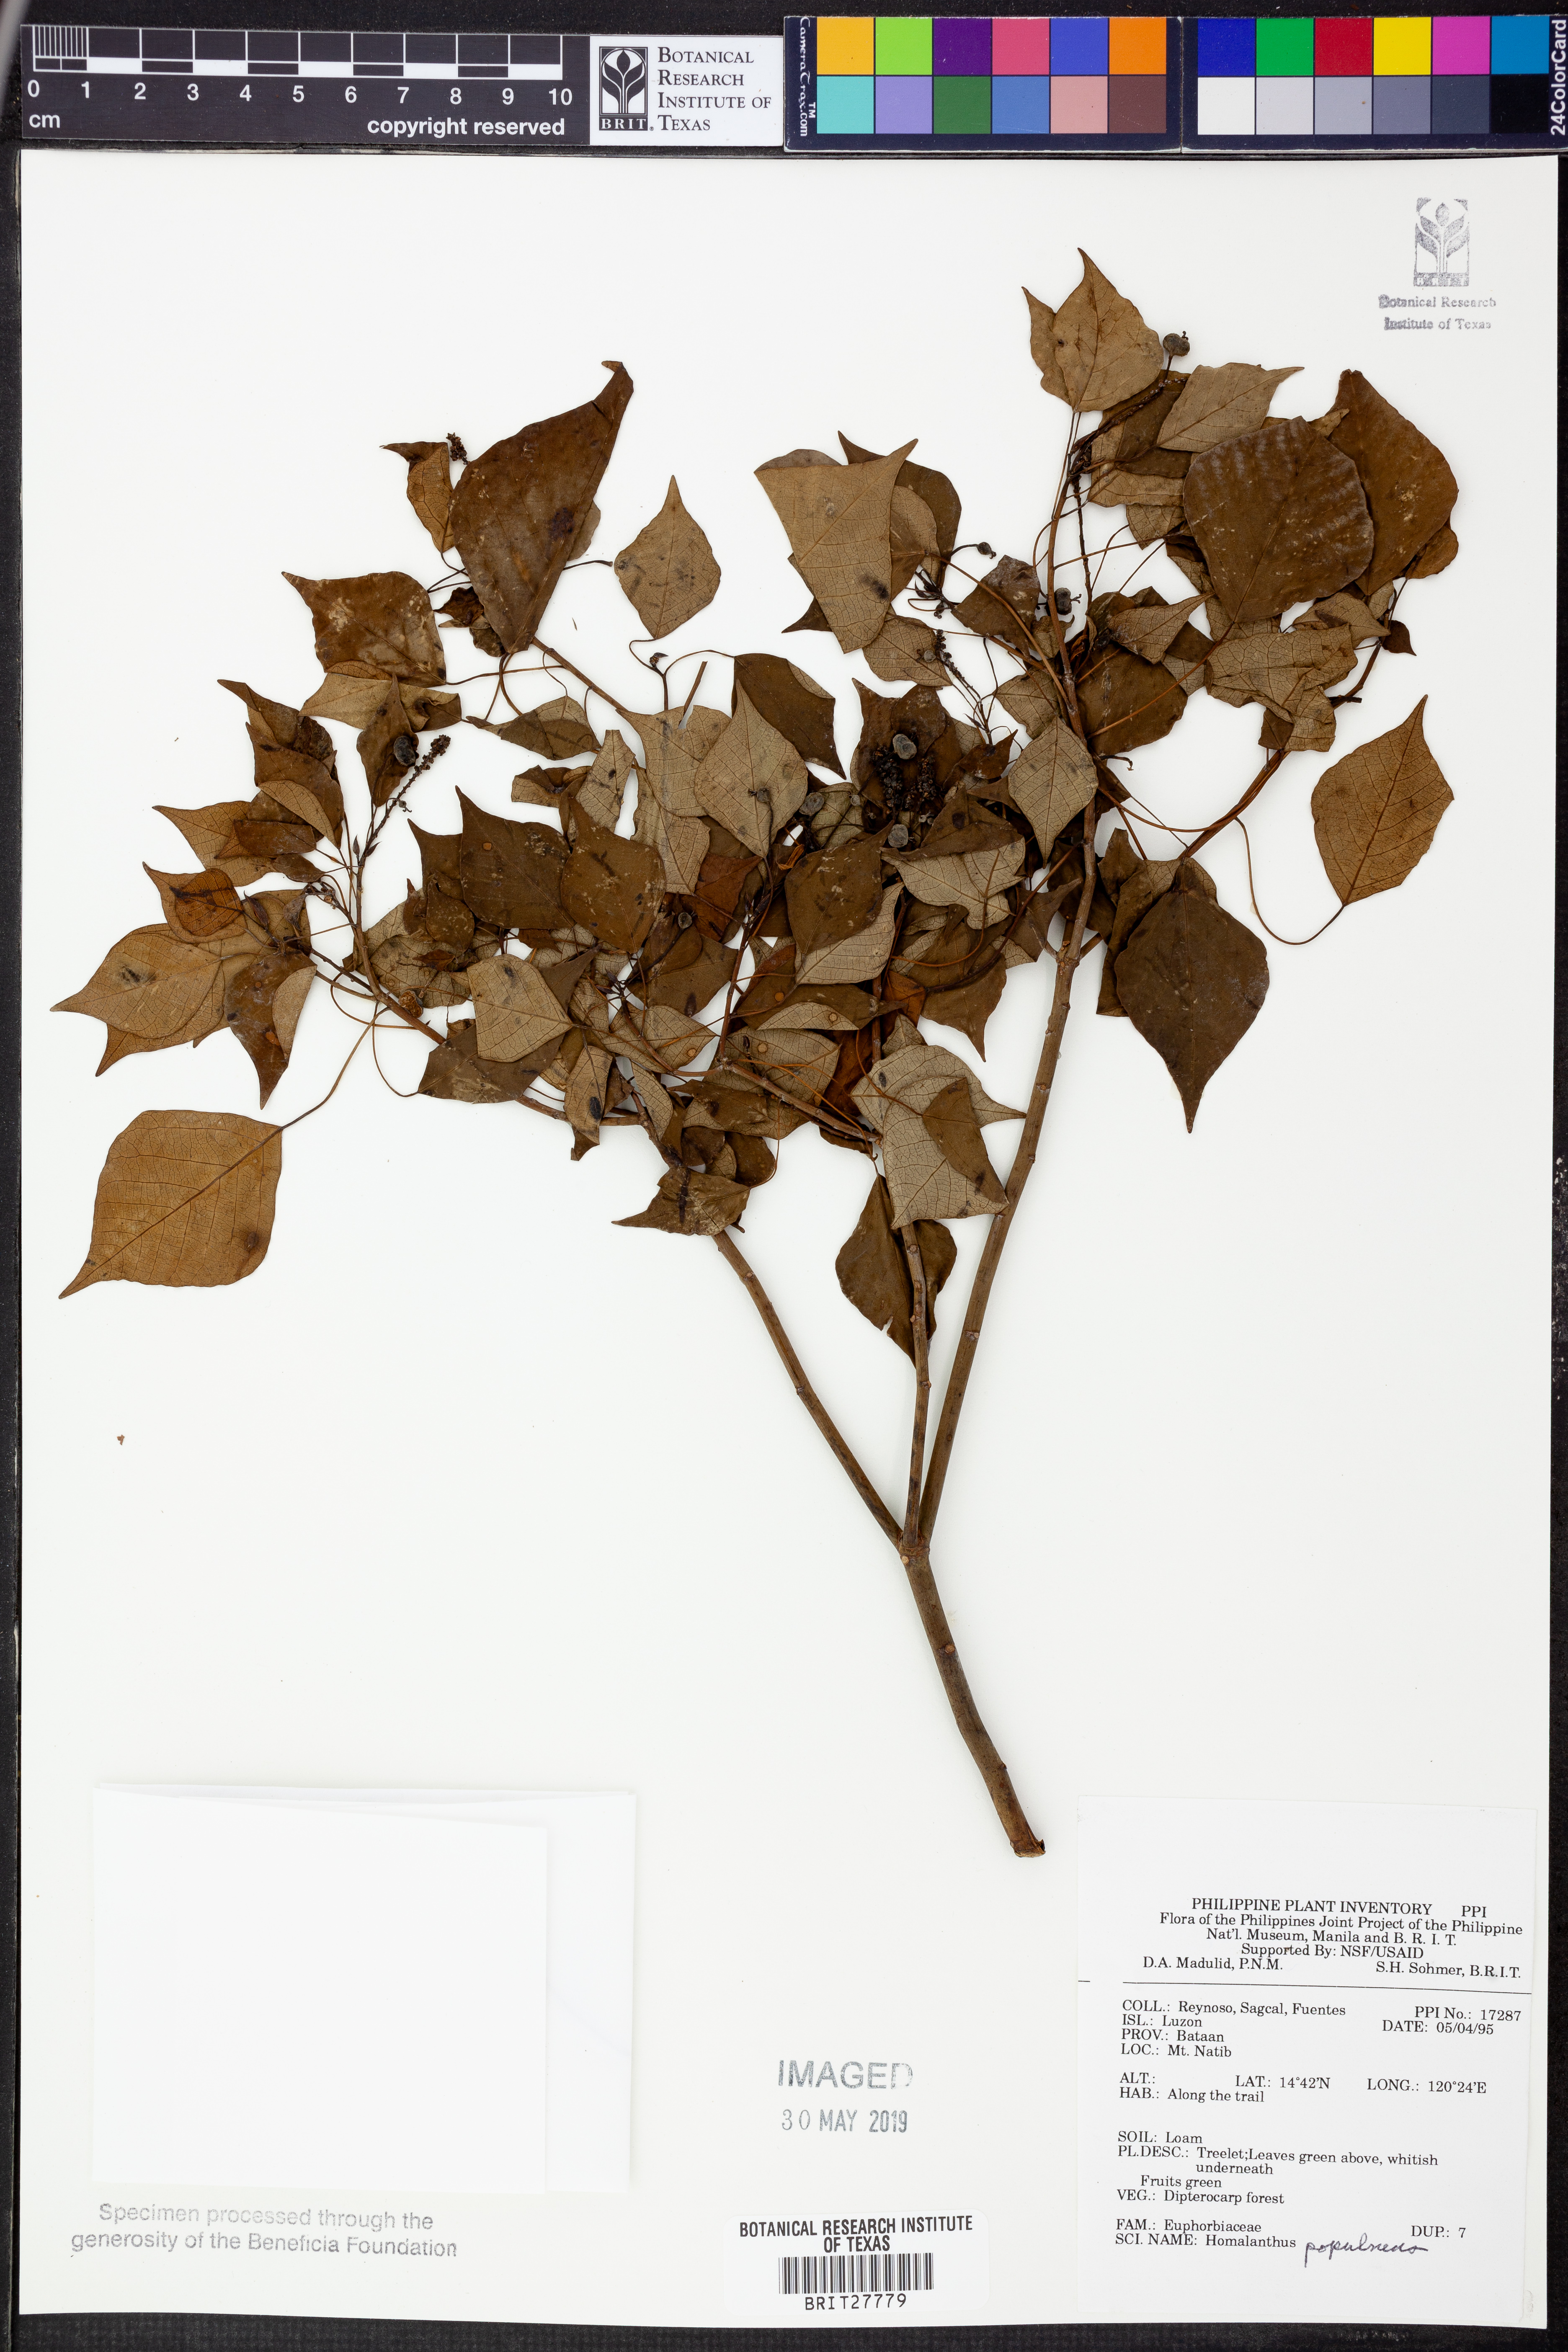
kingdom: Plantae
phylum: Tracheophyta
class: Magnoliopsida
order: Malpighiales
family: Euphorbiaceae
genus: Homalanthus
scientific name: Homalanthus populneus
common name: Spurge
